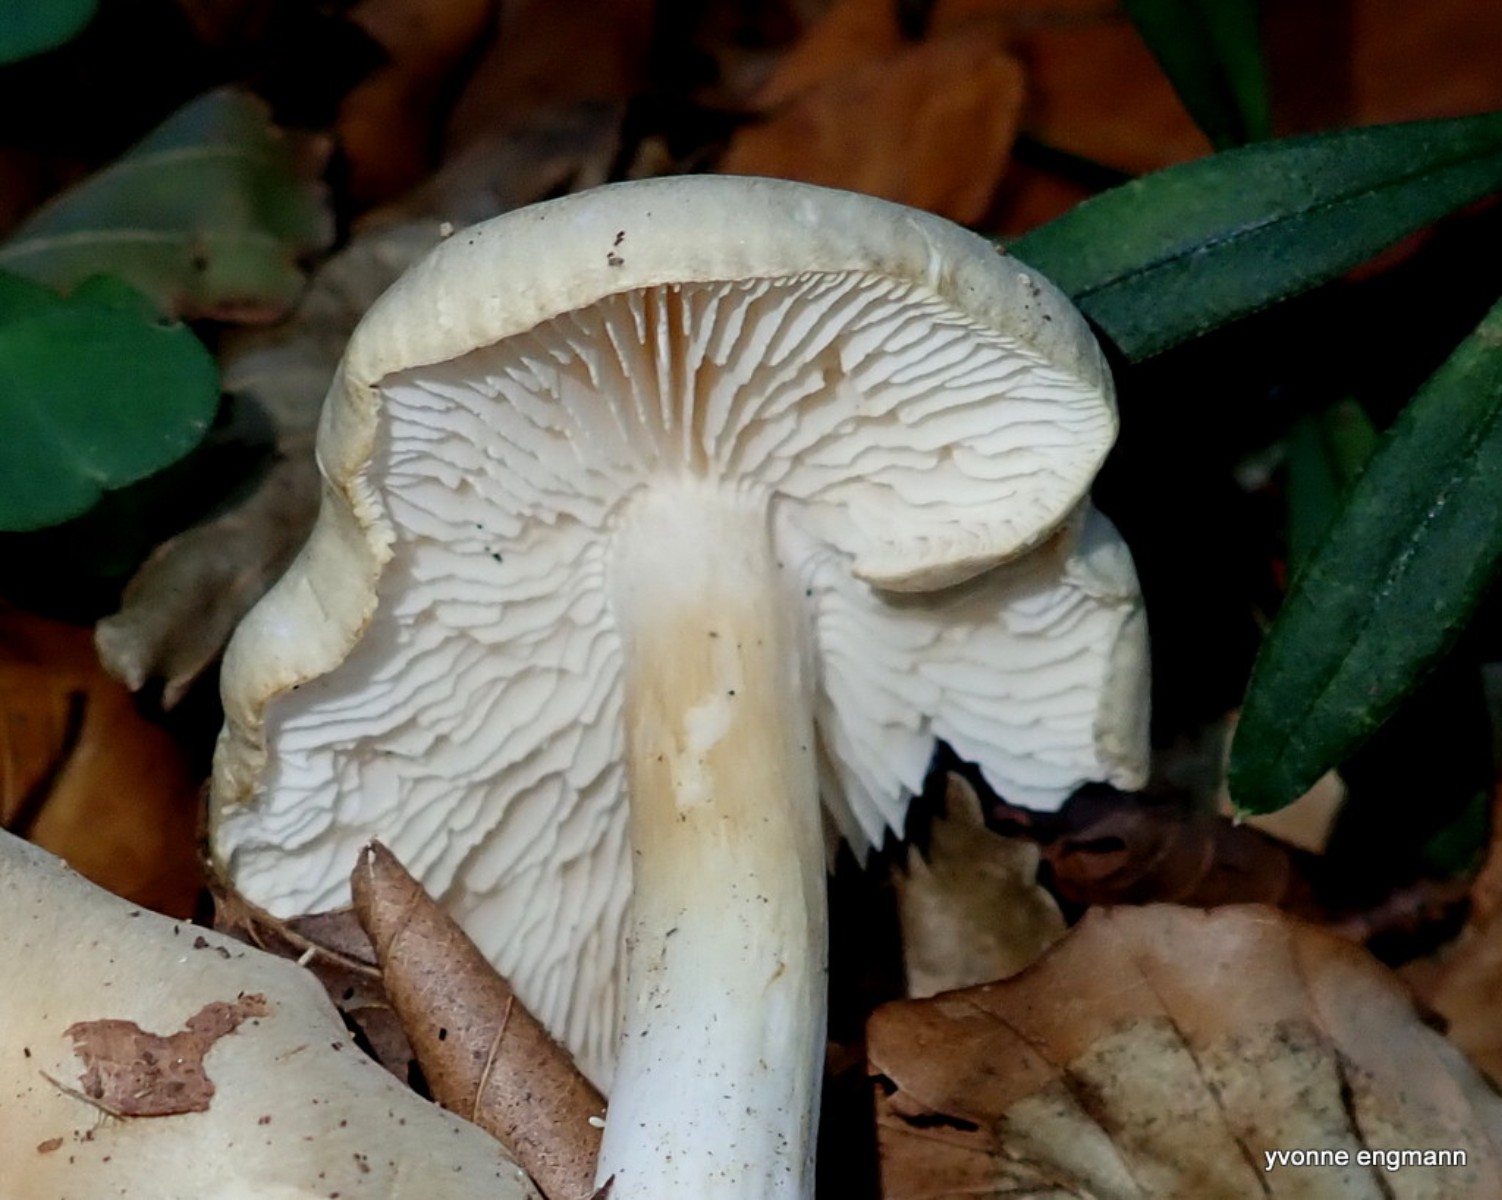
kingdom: Fungi
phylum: Basidiomycota
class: Agaricomycetes
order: Agaricales
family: Tricholomataceae
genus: Tricholoma
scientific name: Tricholoma lascivum
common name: stinkende ridderhat
